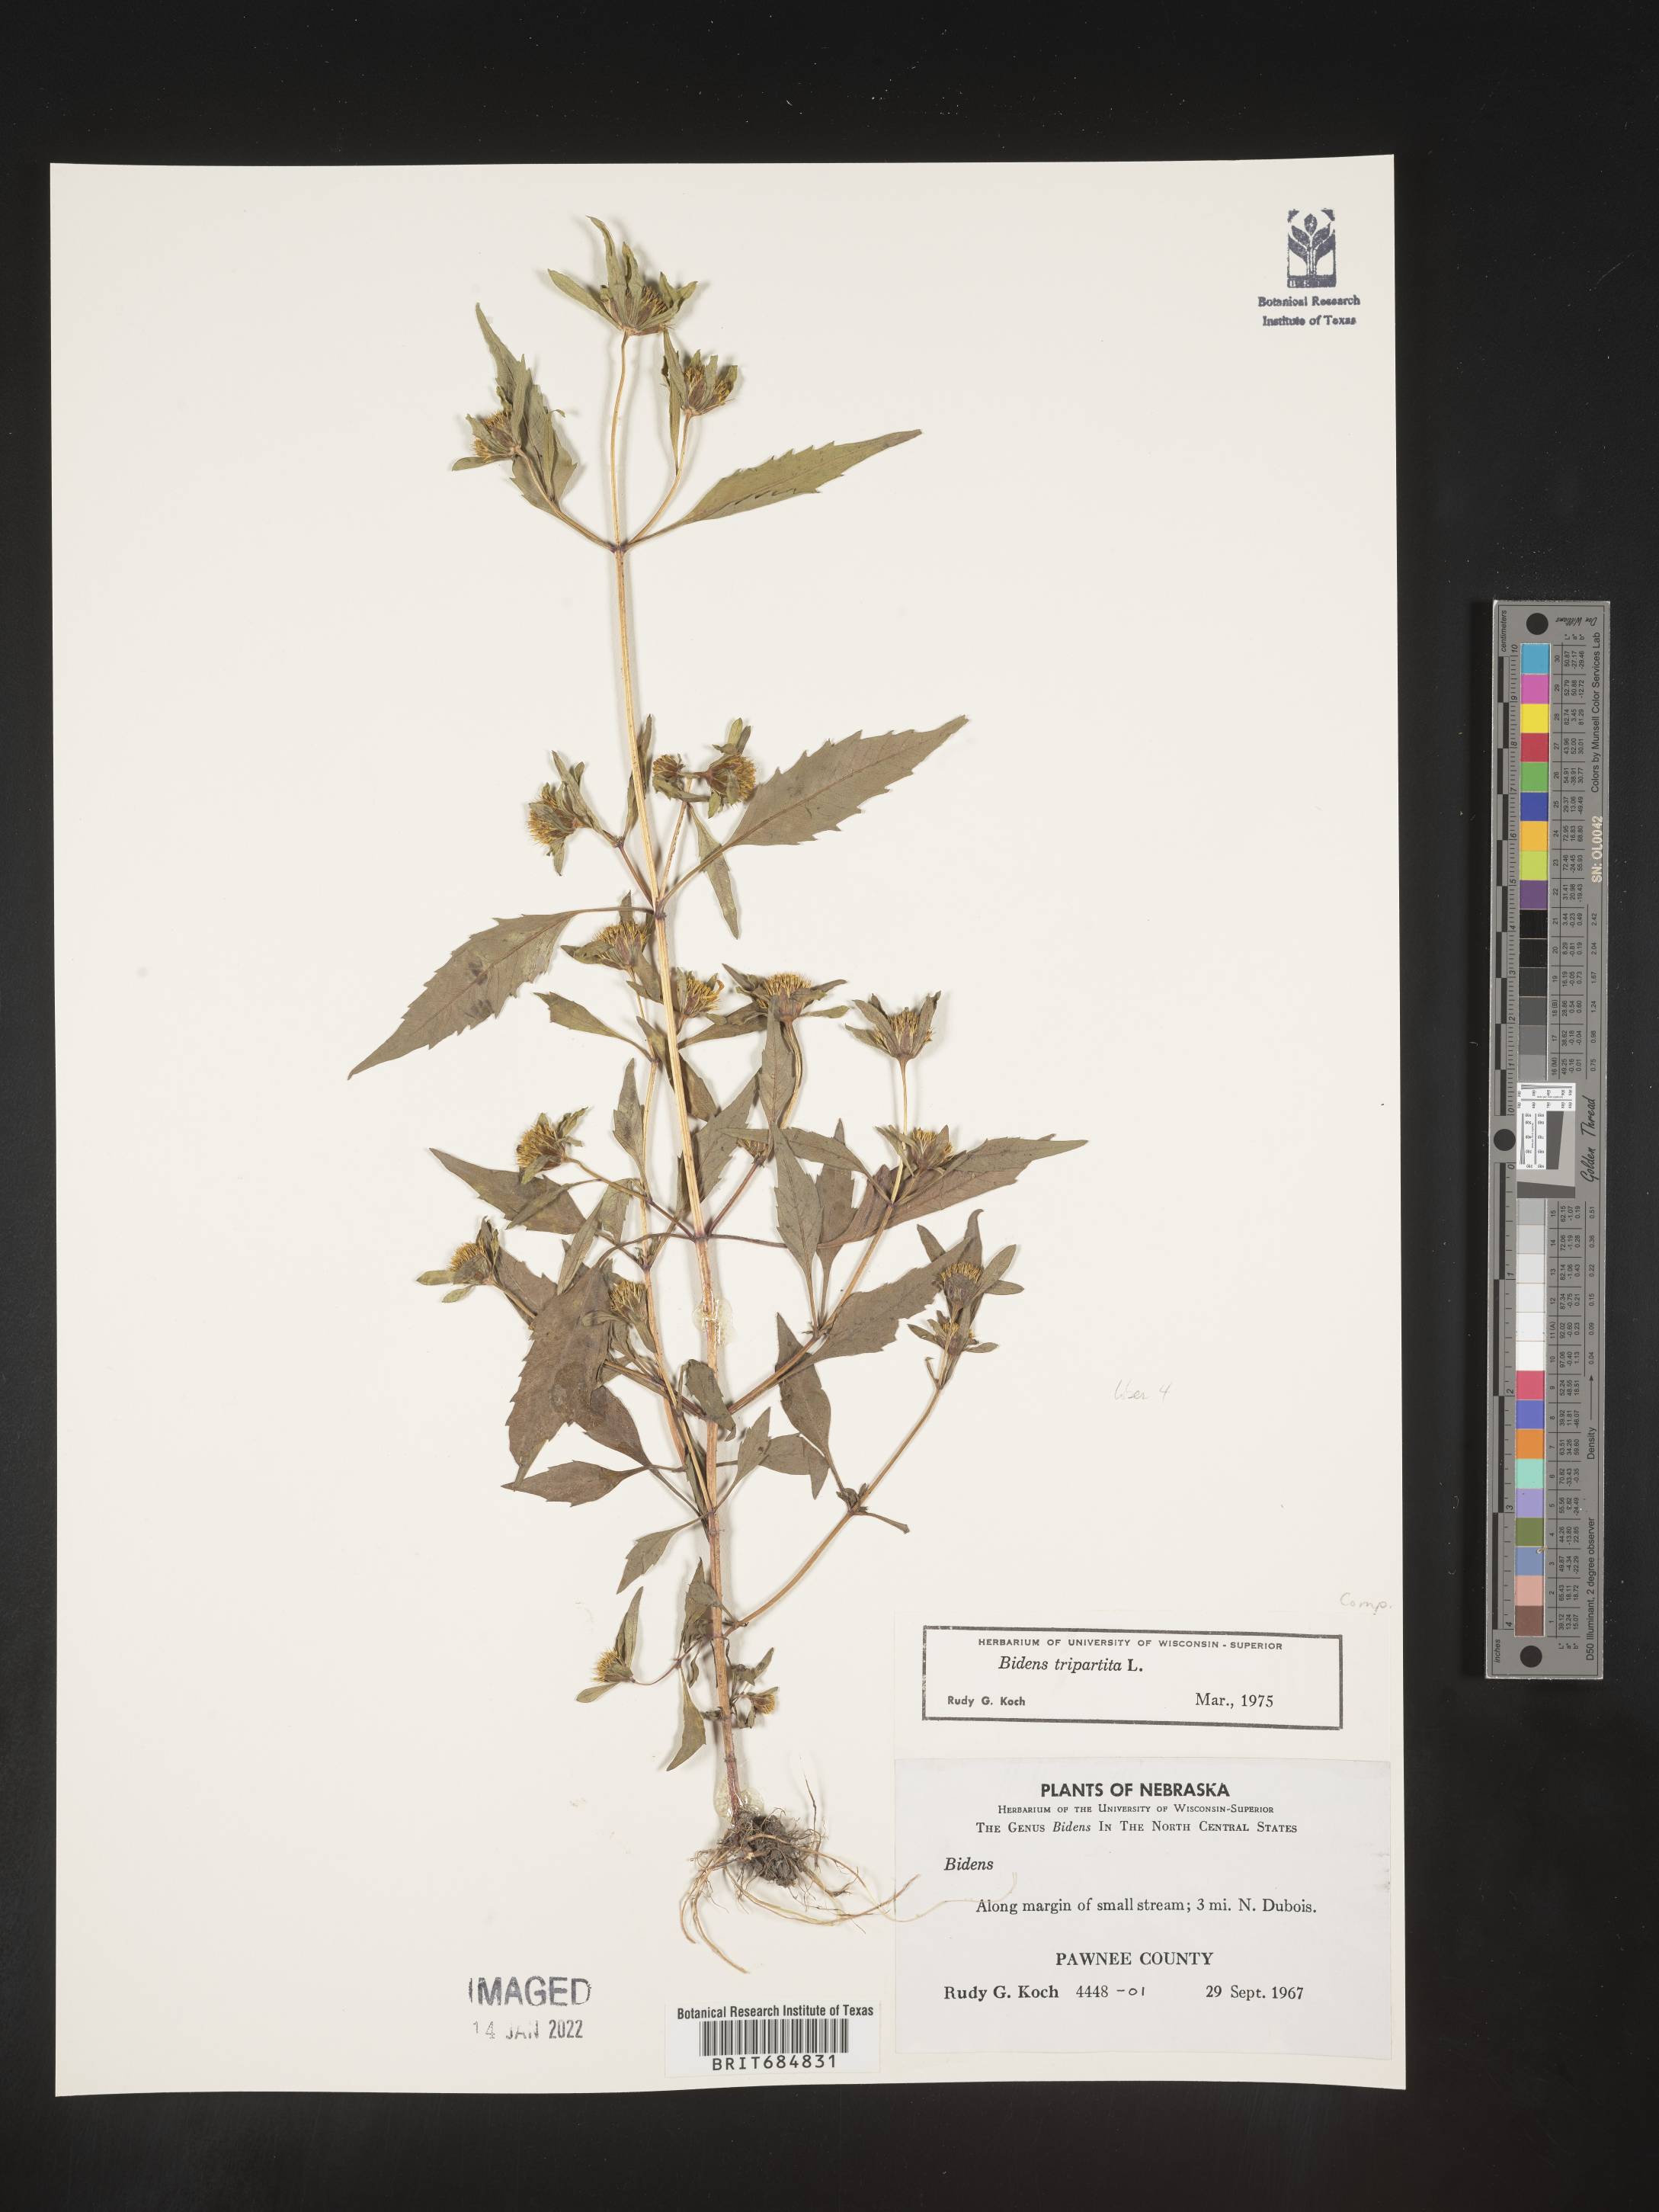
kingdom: Plantae
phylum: Tracheophyta
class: Magnoliopsida
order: Asterales
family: Asteraceae
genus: Bidens
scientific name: Bidens tripartita
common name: Trifid bur-marigold
